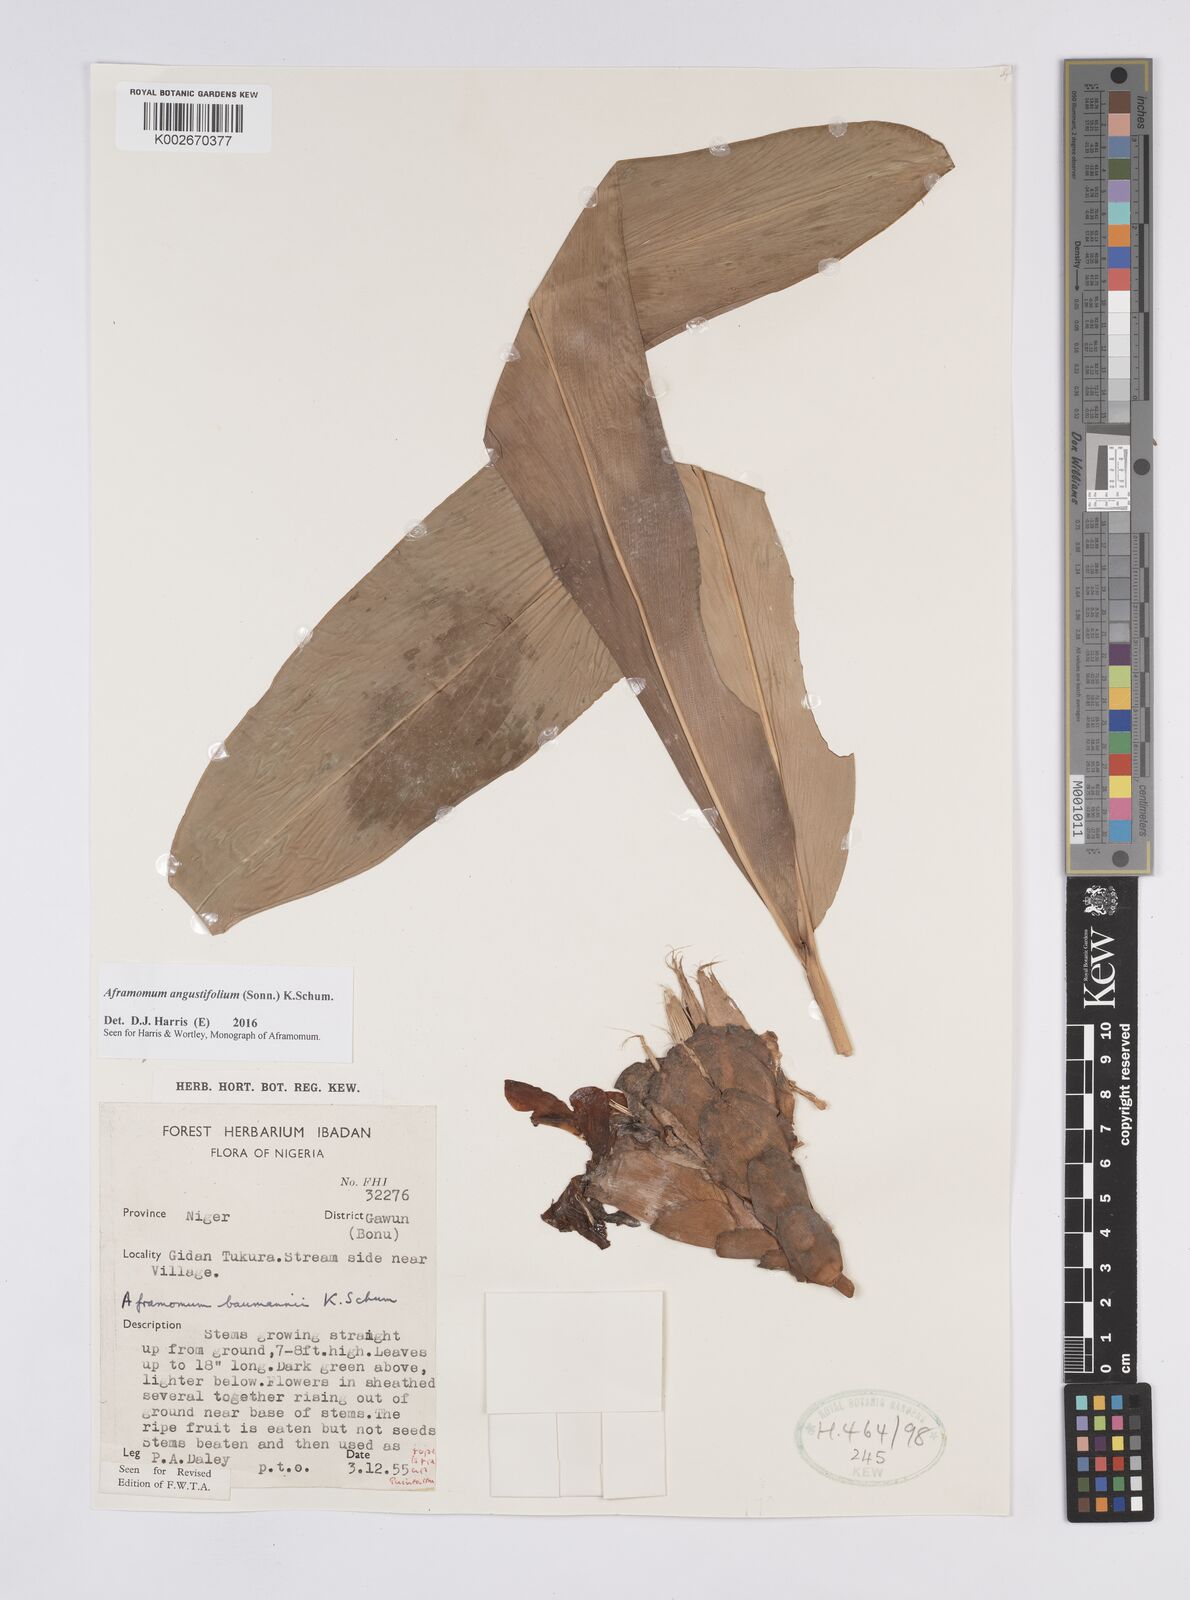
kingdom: Plantae
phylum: Tracheophyta
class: Liliopsida
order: Zingiberales
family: Zingiberaceae
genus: Aframomum
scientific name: Aframomum angustifolium
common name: Guinea grains
